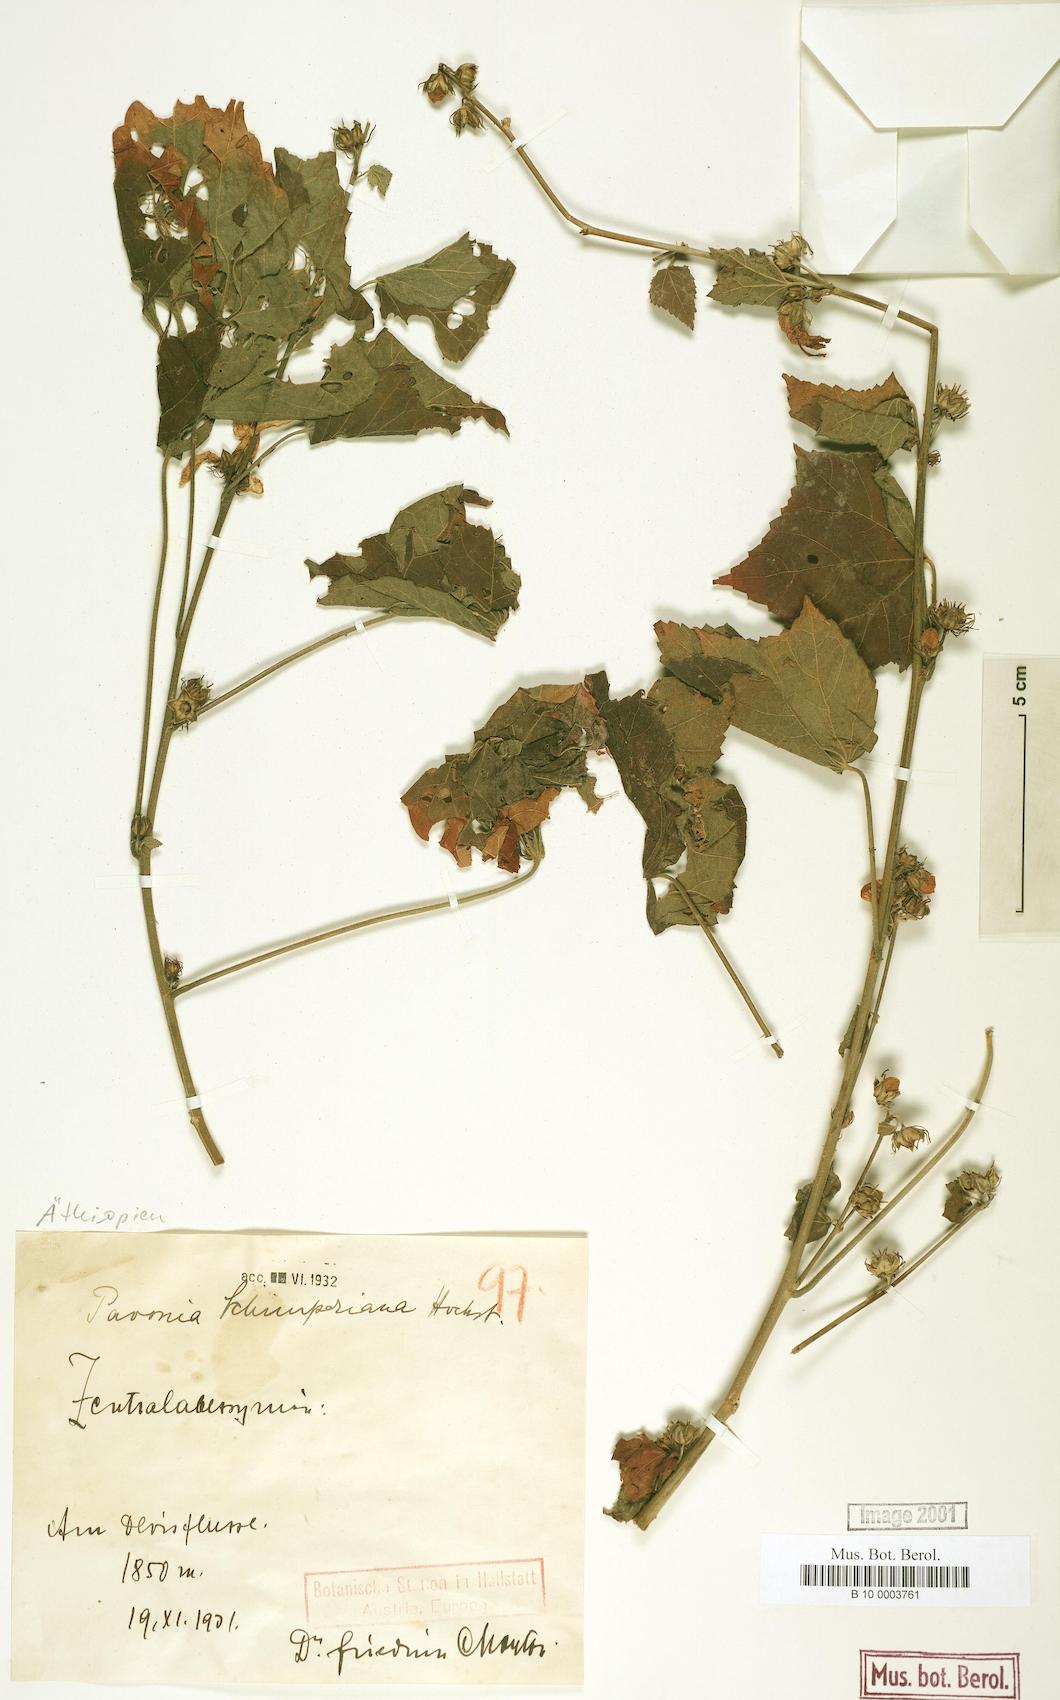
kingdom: Plantae
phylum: Tracheophyta
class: Magnoliopsida
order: Malvales
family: Malvaceae
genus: Pavonia
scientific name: Pavonia schimperiana
